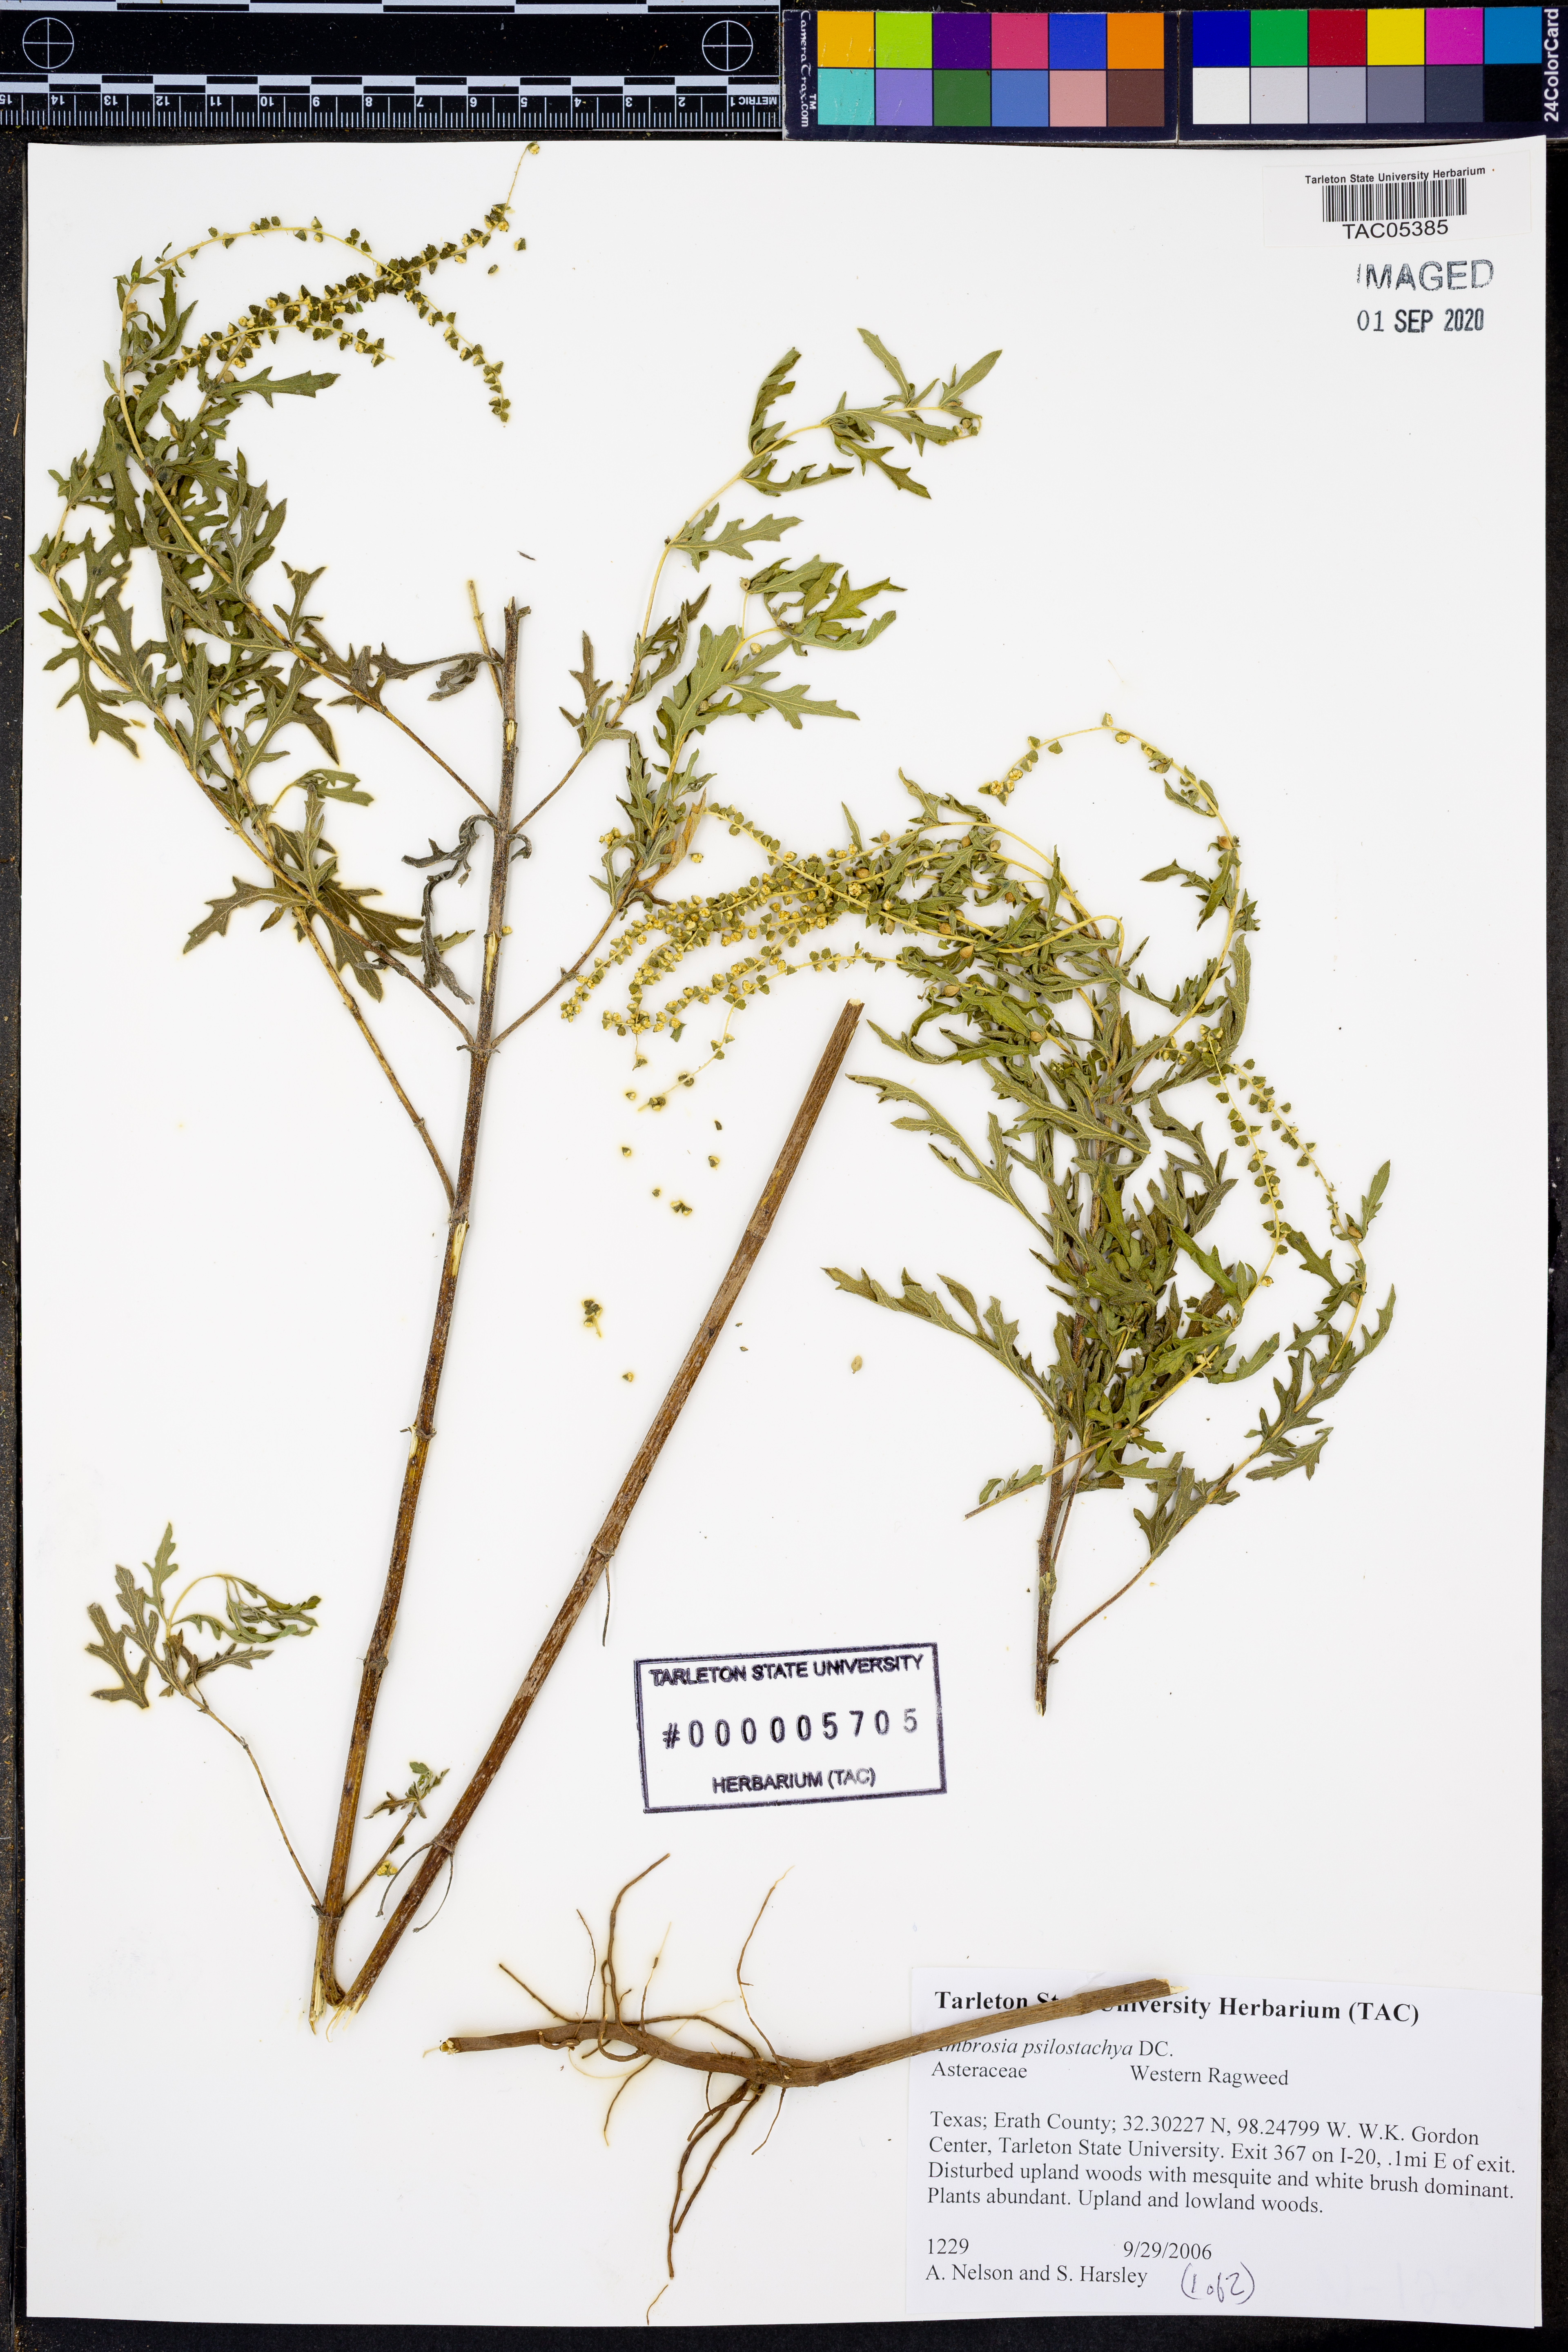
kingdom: Plantae
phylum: Tracheophyta
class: Magnoliopsida
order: Asterales
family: Asteraceae
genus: Ambrosia
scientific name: Ambrosia psilostachya
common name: Perennial ragweed
